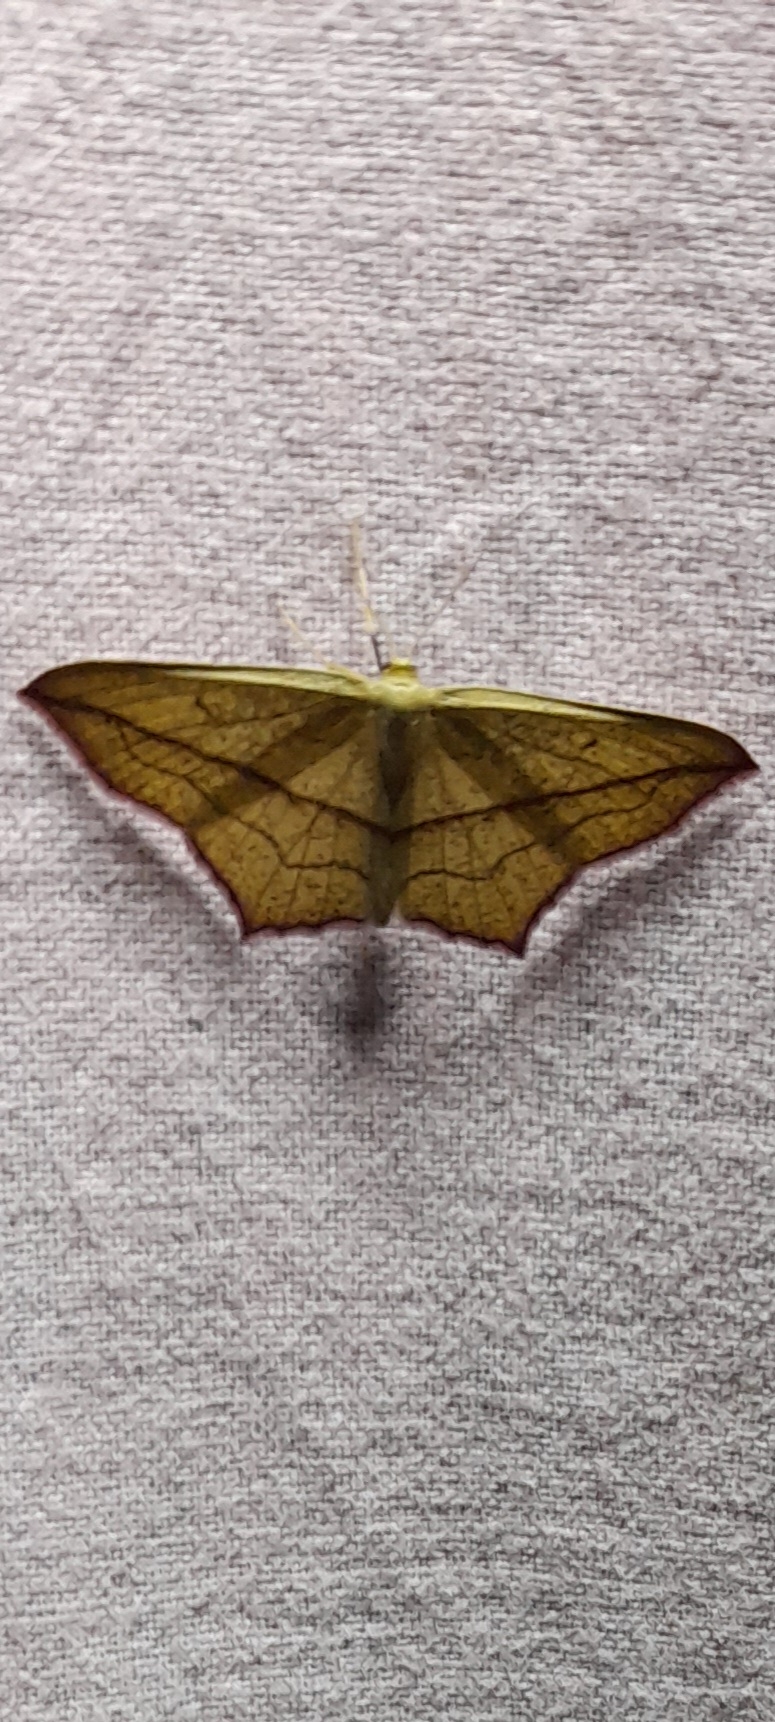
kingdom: Animalia
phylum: Arthropoda
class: Insecta
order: Lepidoptera
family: Geometridae
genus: Timandra
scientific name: Timandra comae
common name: Gul syremåler
